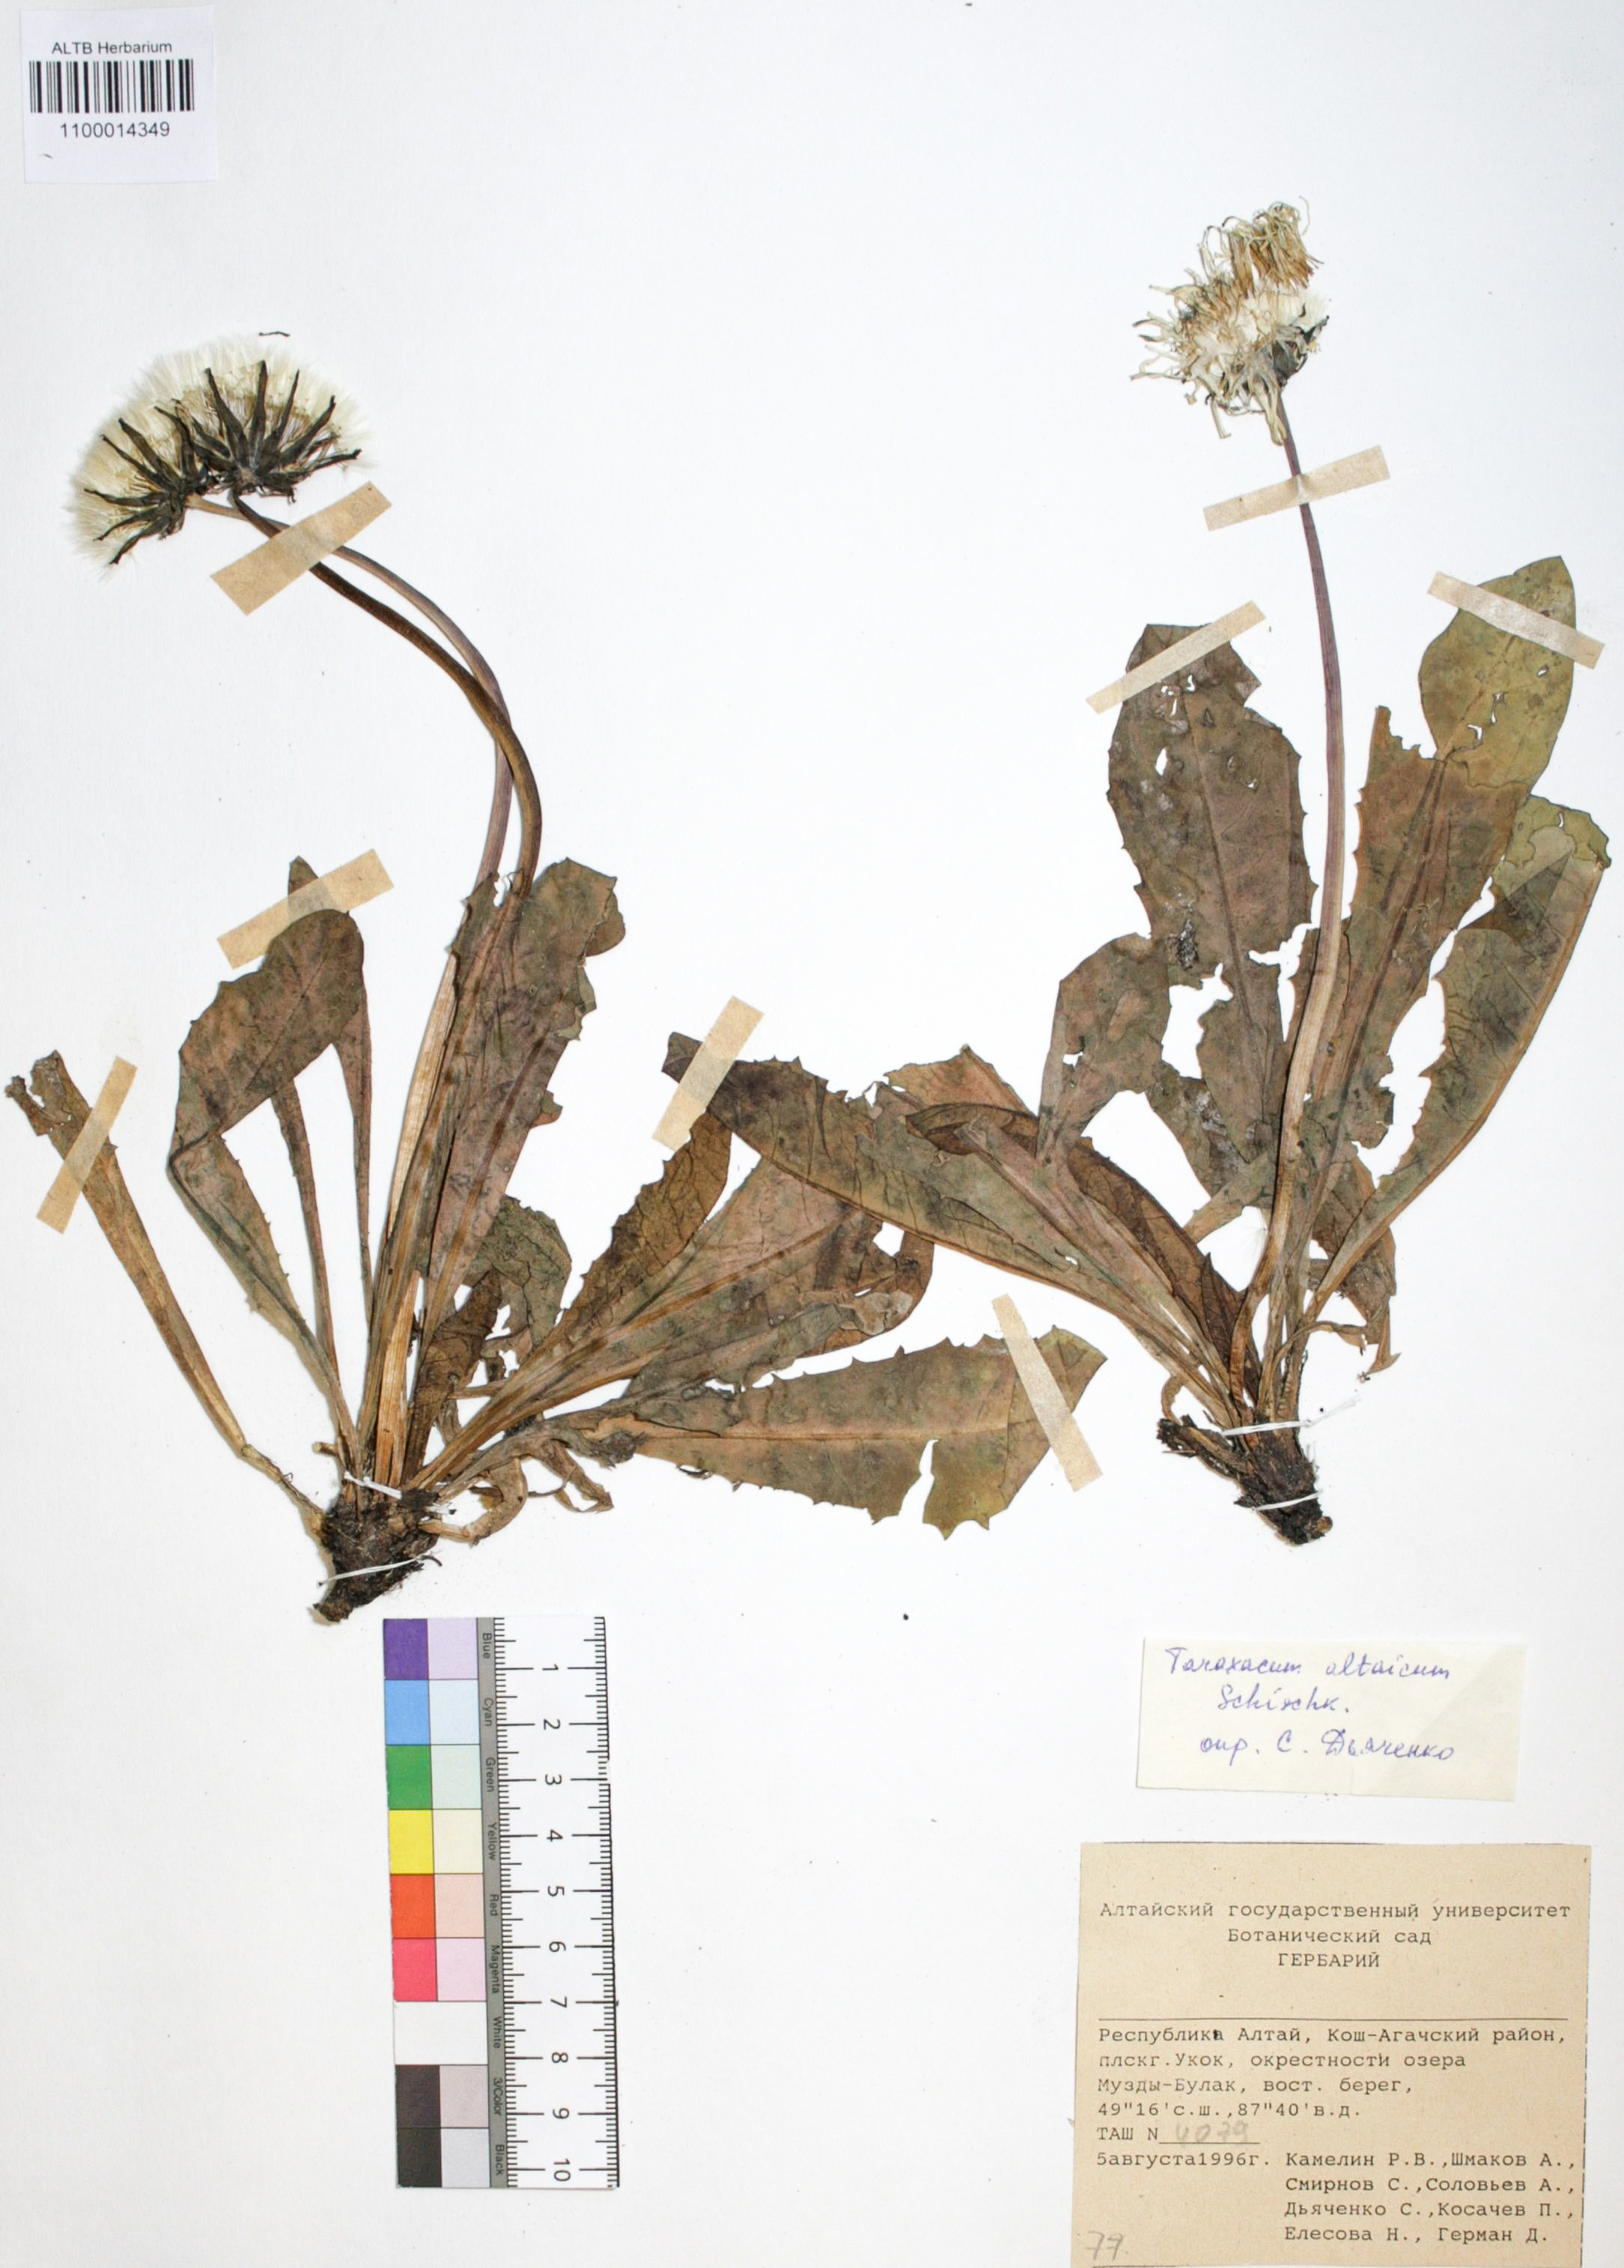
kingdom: Plantae
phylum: Tracheophyta
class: Magnoliopsida
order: Asterales
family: Asteraceae
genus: Taraxacum
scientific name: Taraxacum ceratophorum
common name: Horn-bearing dandelion
